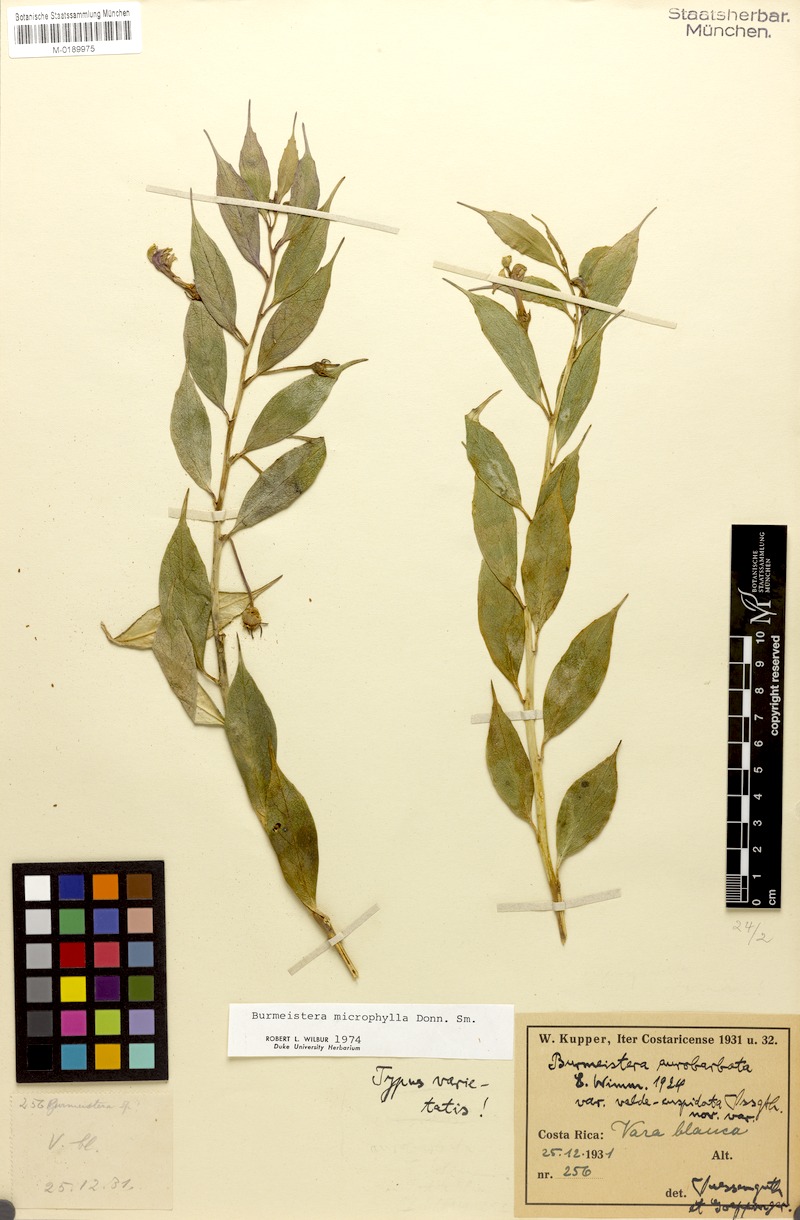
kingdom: Plantae
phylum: Tracheophyta
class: Magnoliopsida
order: Asterales
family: Campanulaceae
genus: Burmeistera
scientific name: Burmeistera microphylla
